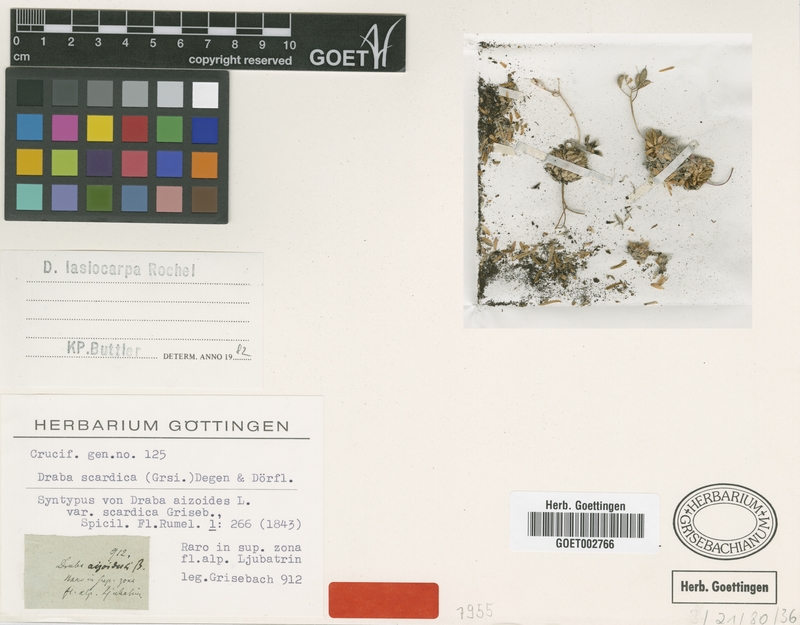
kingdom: Plantae
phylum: Tracheophyta
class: Magnoliopsida
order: Brassicales
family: Brassicaceae
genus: Draba
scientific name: Draba lasiocarpa
